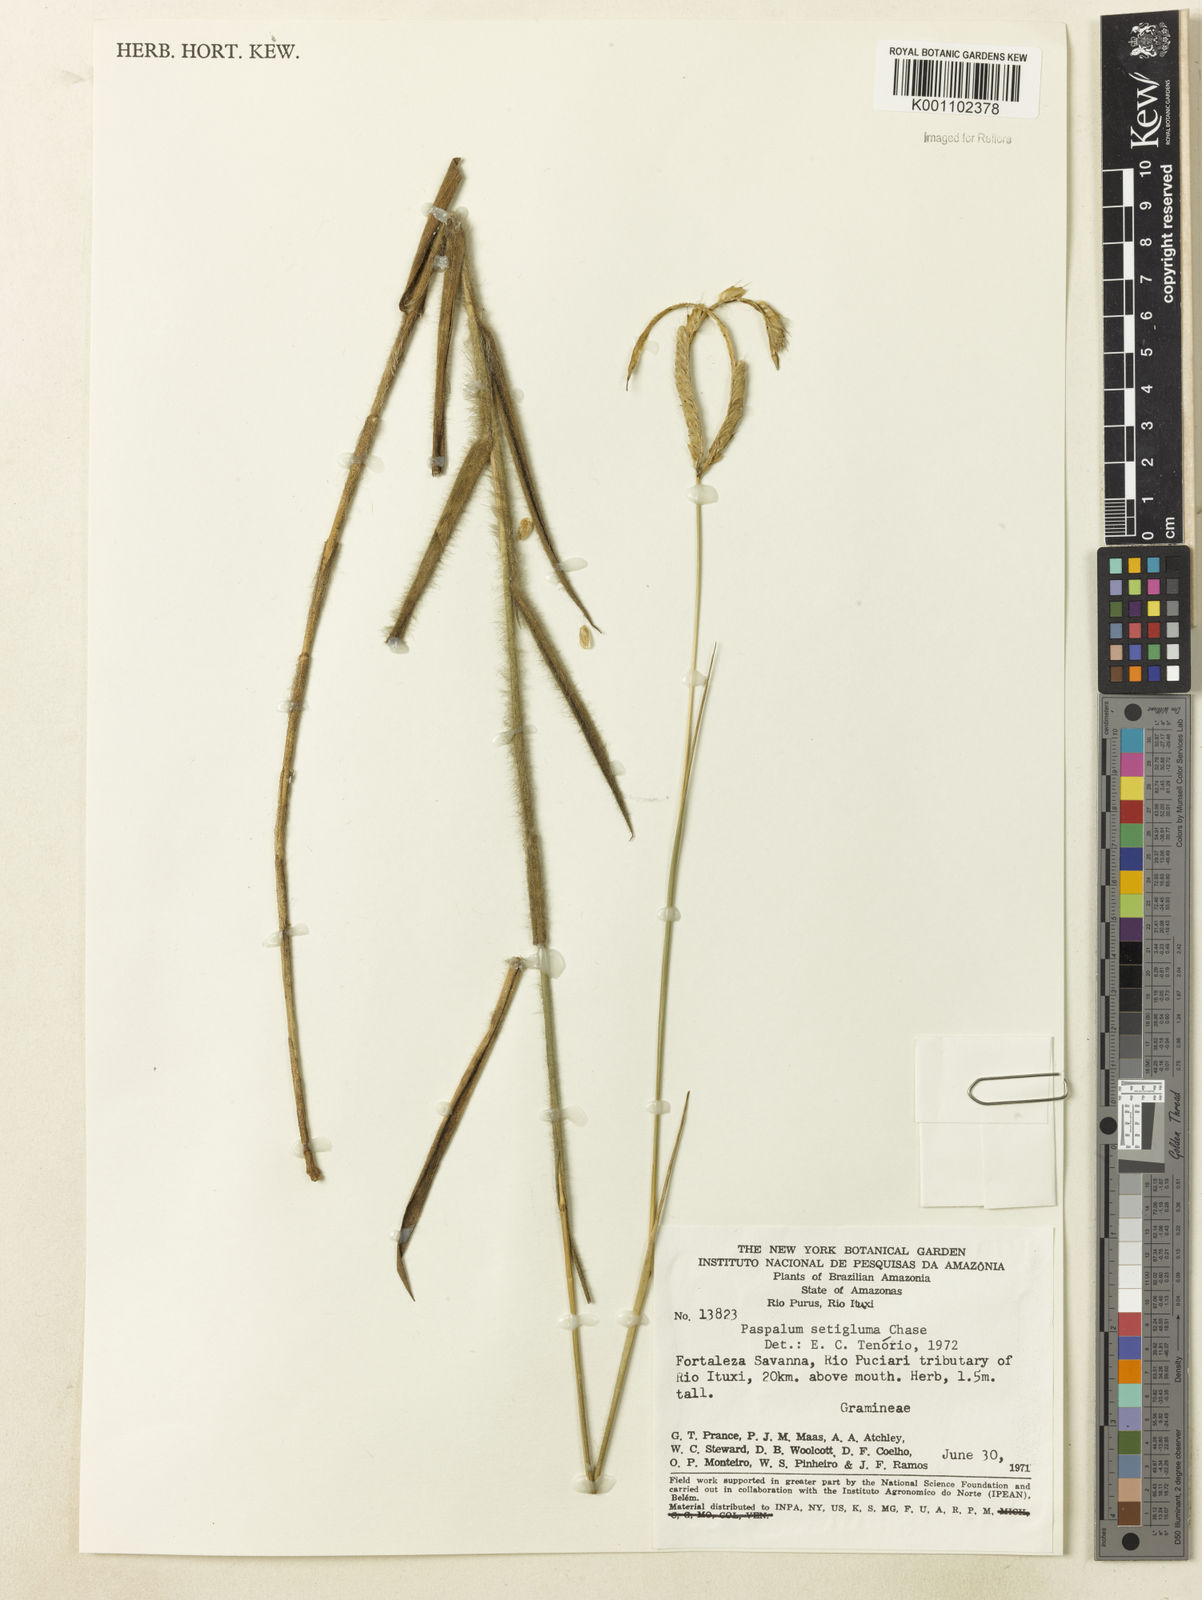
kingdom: Plantae
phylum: Tracheophyta
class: Liliopsida
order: Poales
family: Poaceae
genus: Paspalum
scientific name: Paspalum aspidiotes
